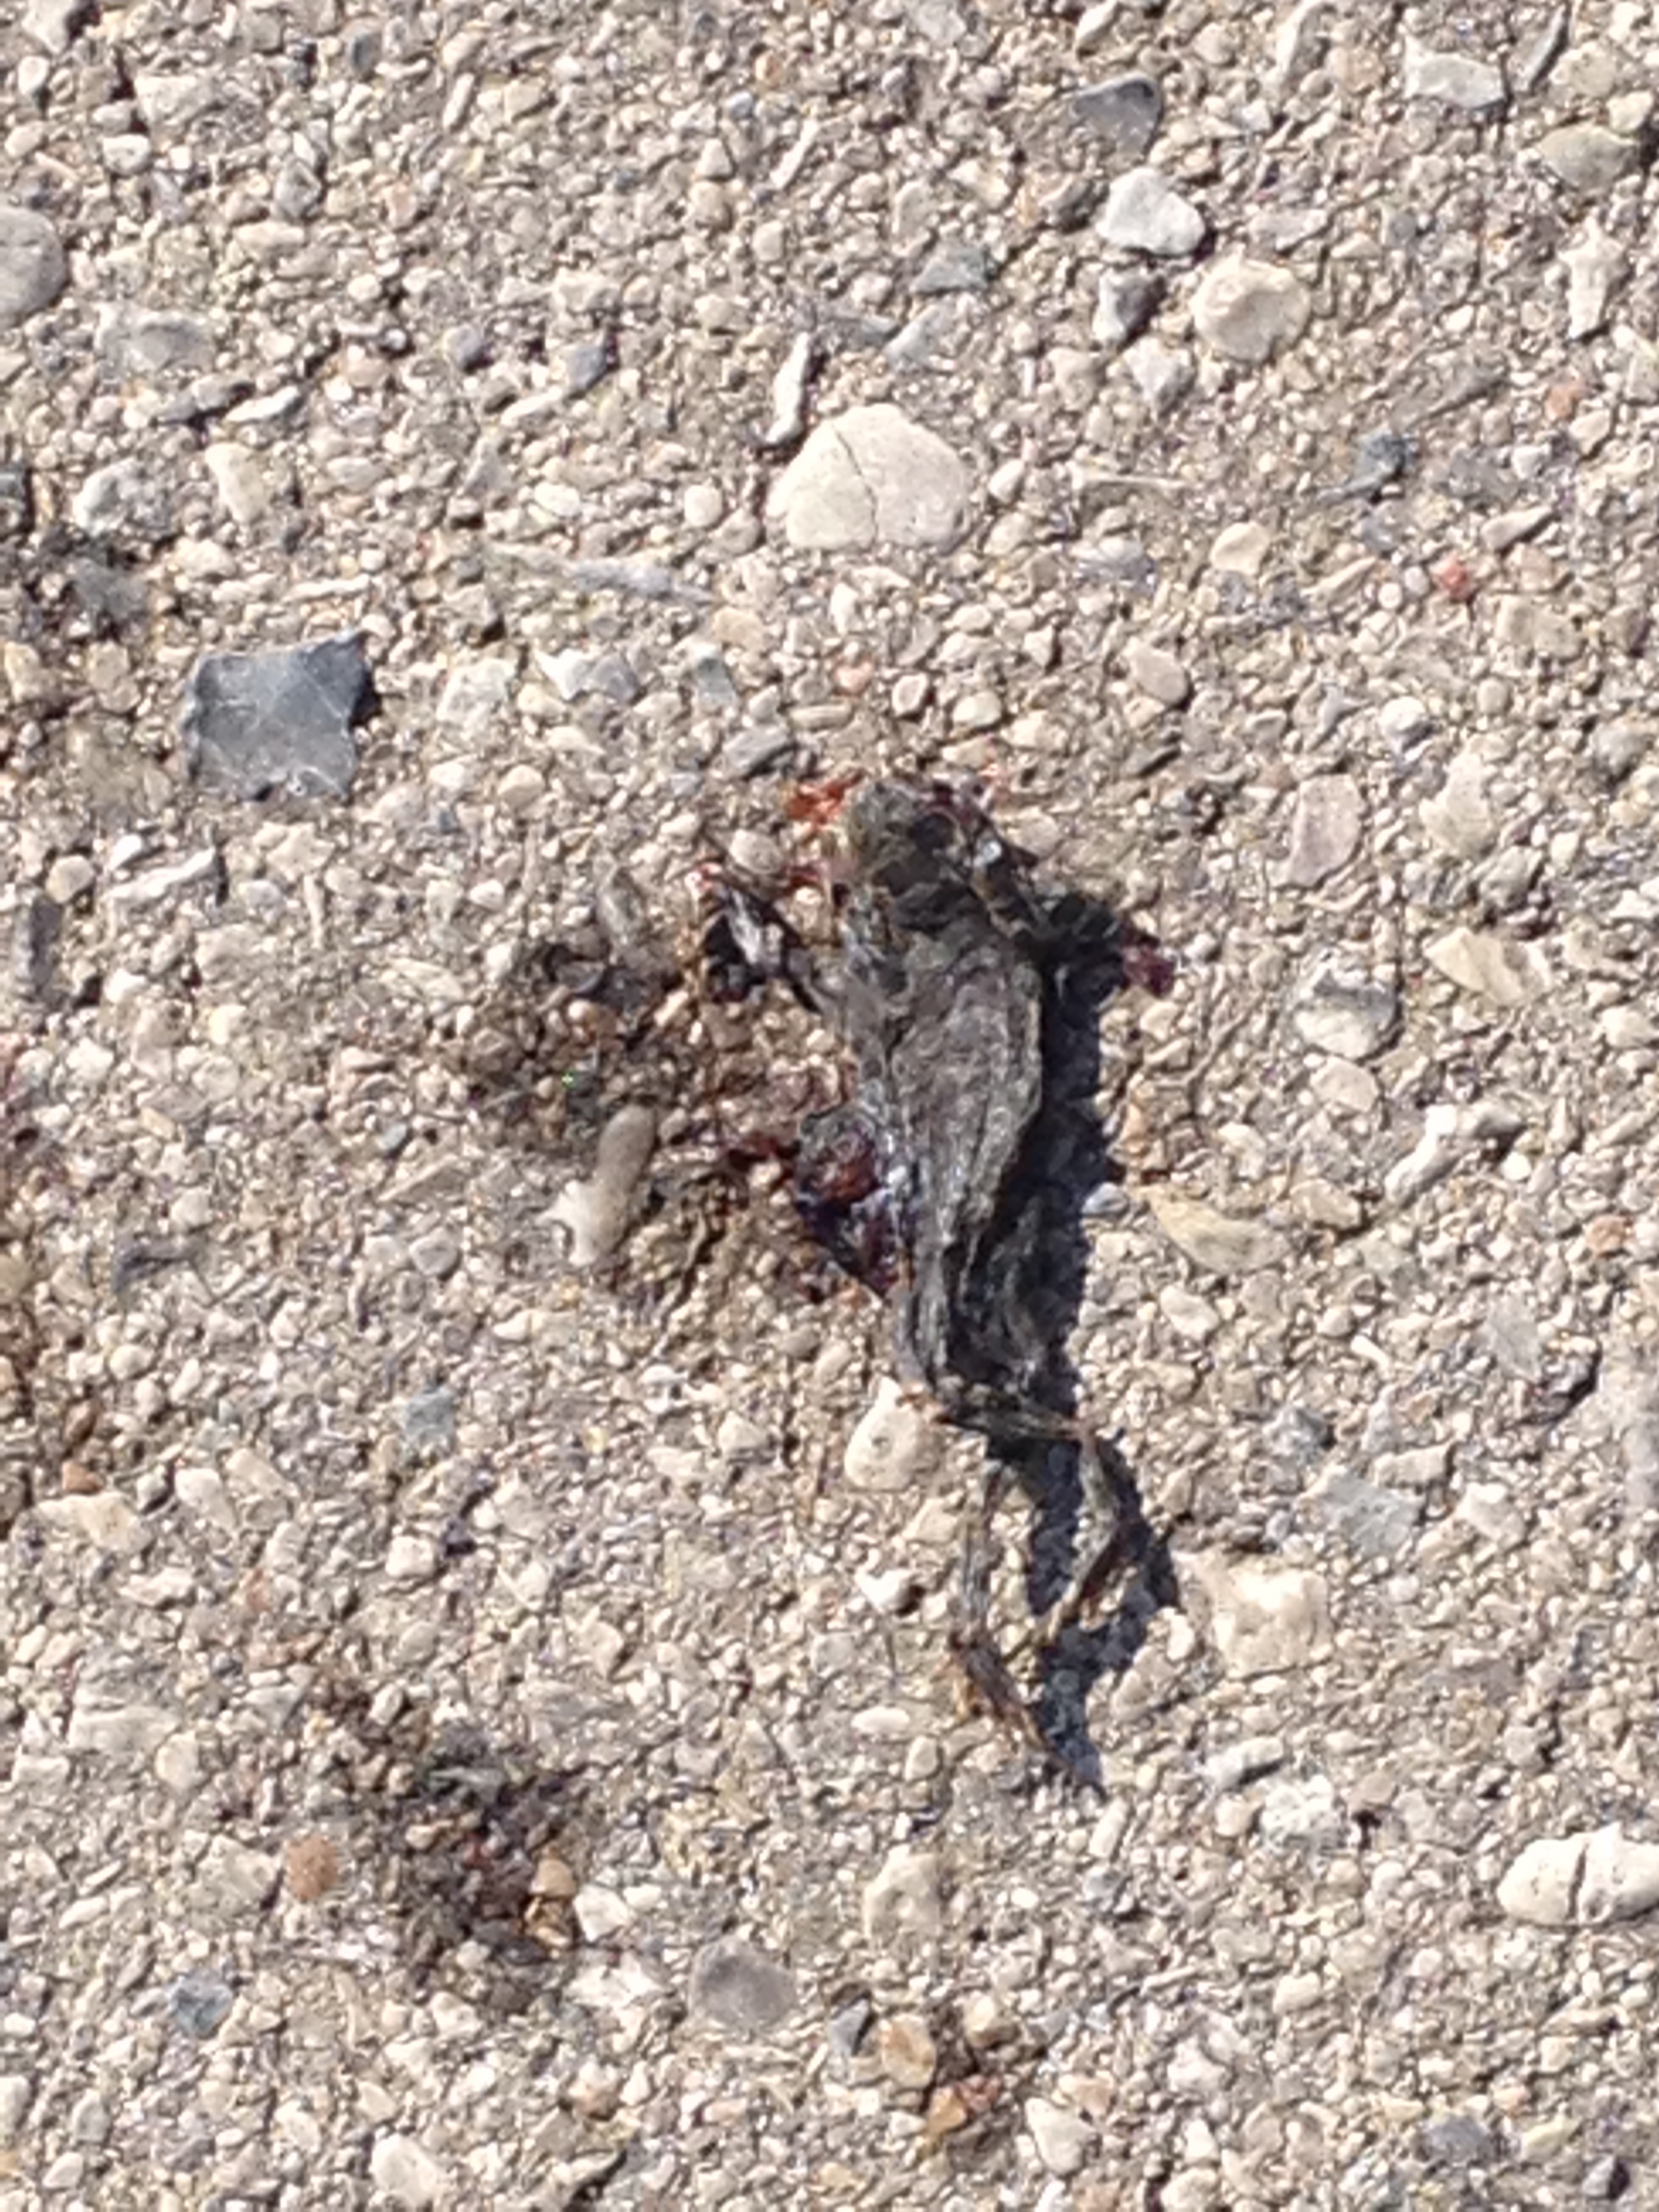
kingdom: Animalia
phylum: Chordata
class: Amphibia
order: Anura
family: Bufonidae
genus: Bufotes
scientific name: Bufotes viridis
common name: European green toad
